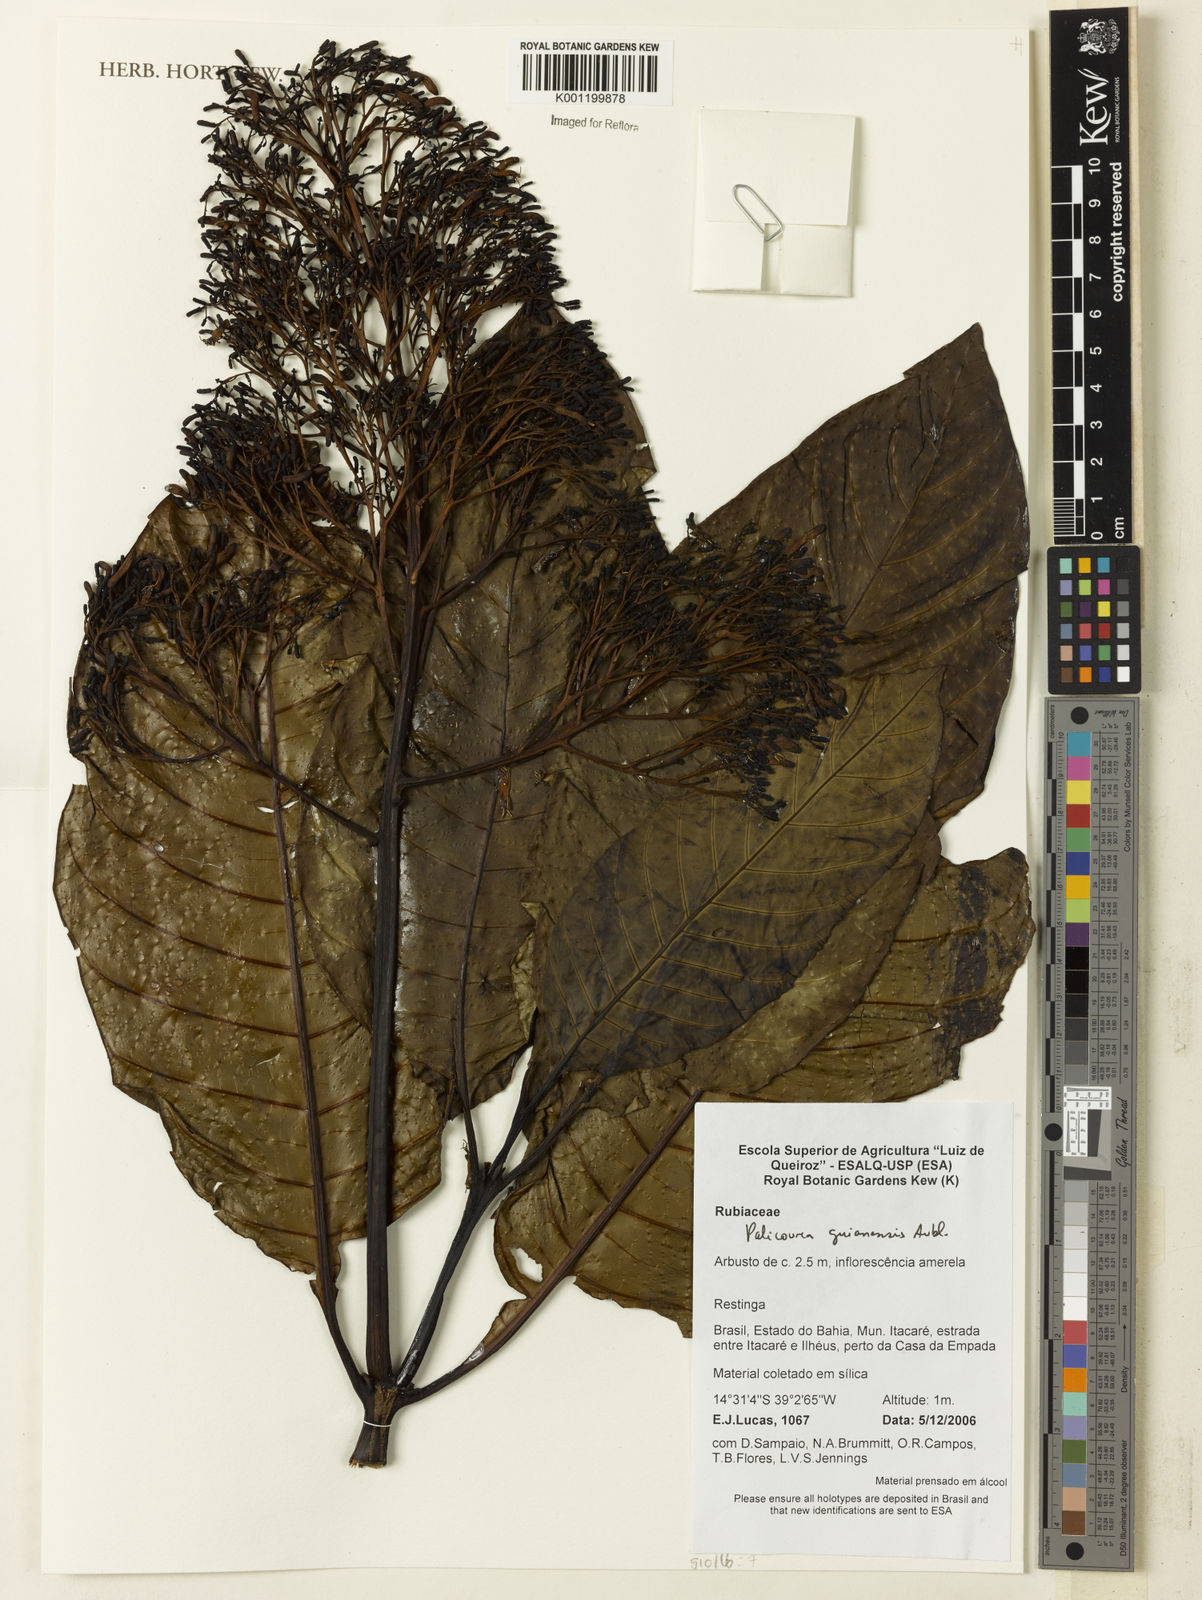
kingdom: Plantae
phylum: Tracheophyta
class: Magnoliopsida
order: Gentianales
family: Rubiaceae
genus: Palicourea
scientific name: Palicourea guianensis
